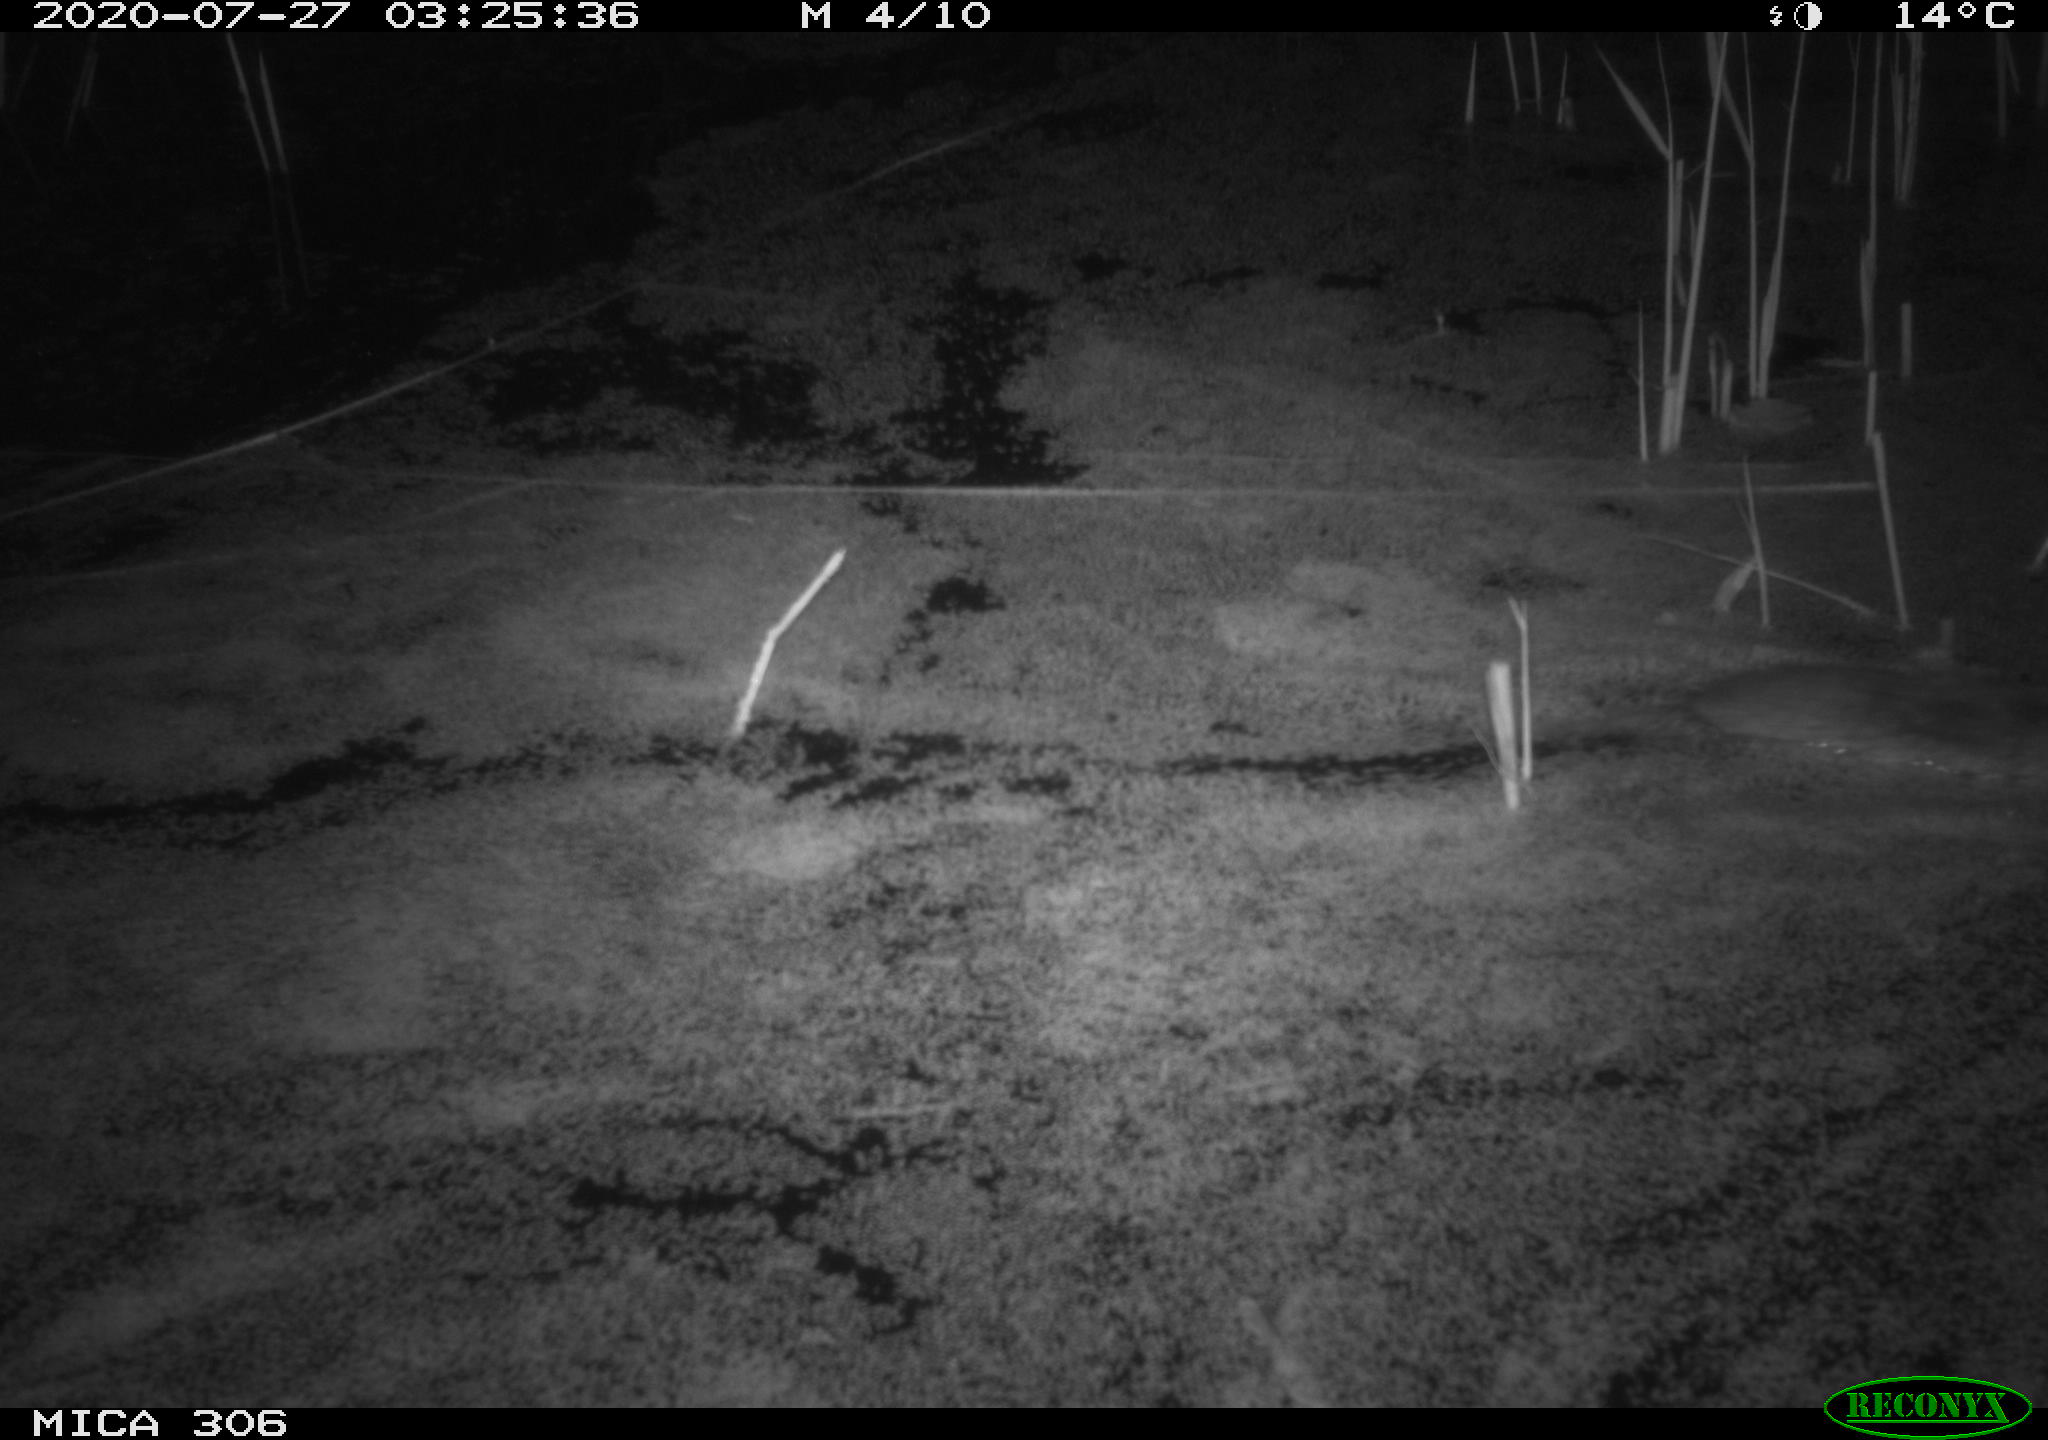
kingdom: Animalia
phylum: Chordata
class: Mammalia
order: Rodentia
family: Cricetidae
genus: Ondatra
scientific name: Ondatra zibethicus
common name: Muskrat
